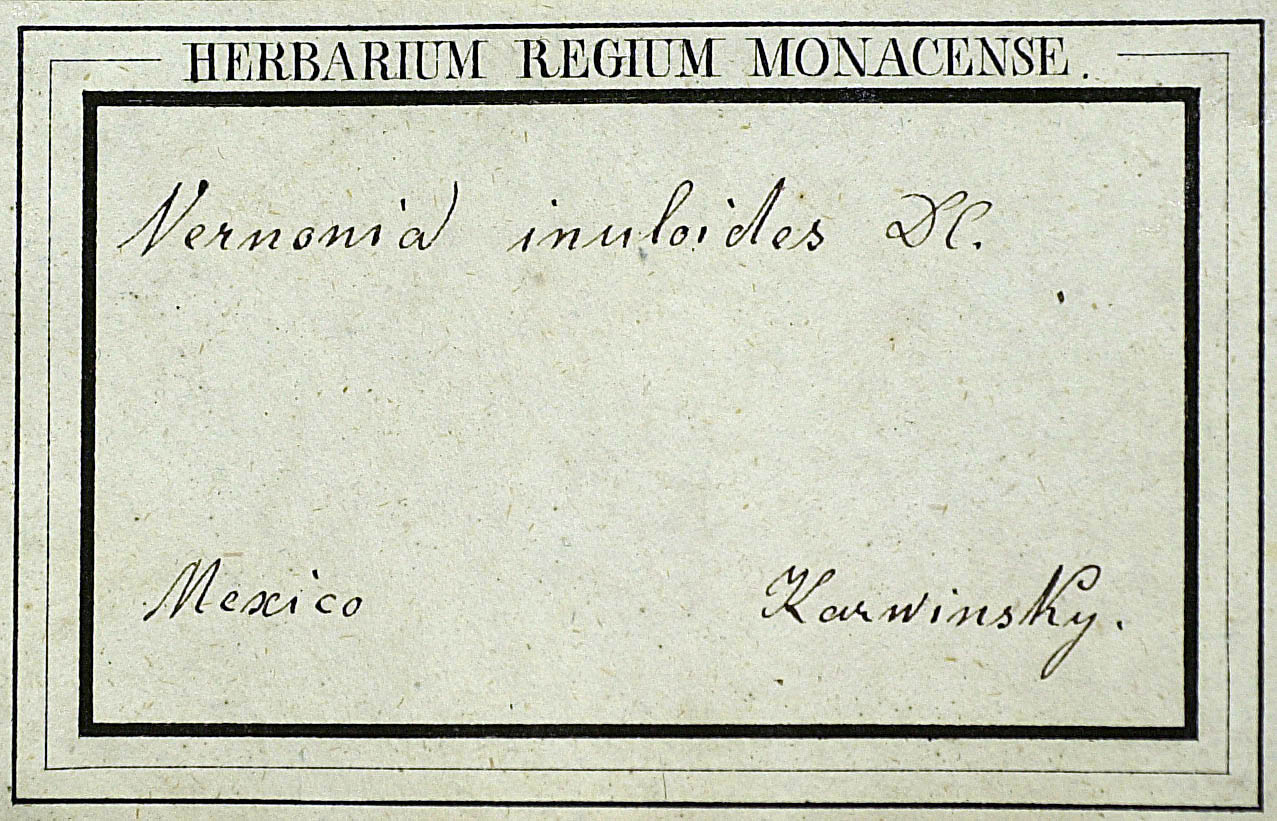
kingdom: Plantae
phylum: Tracheophyta
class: Magnoliopsida
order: Asterales
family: Asteraceae
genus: Vernonia
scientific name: Vernonia karvinskiana
